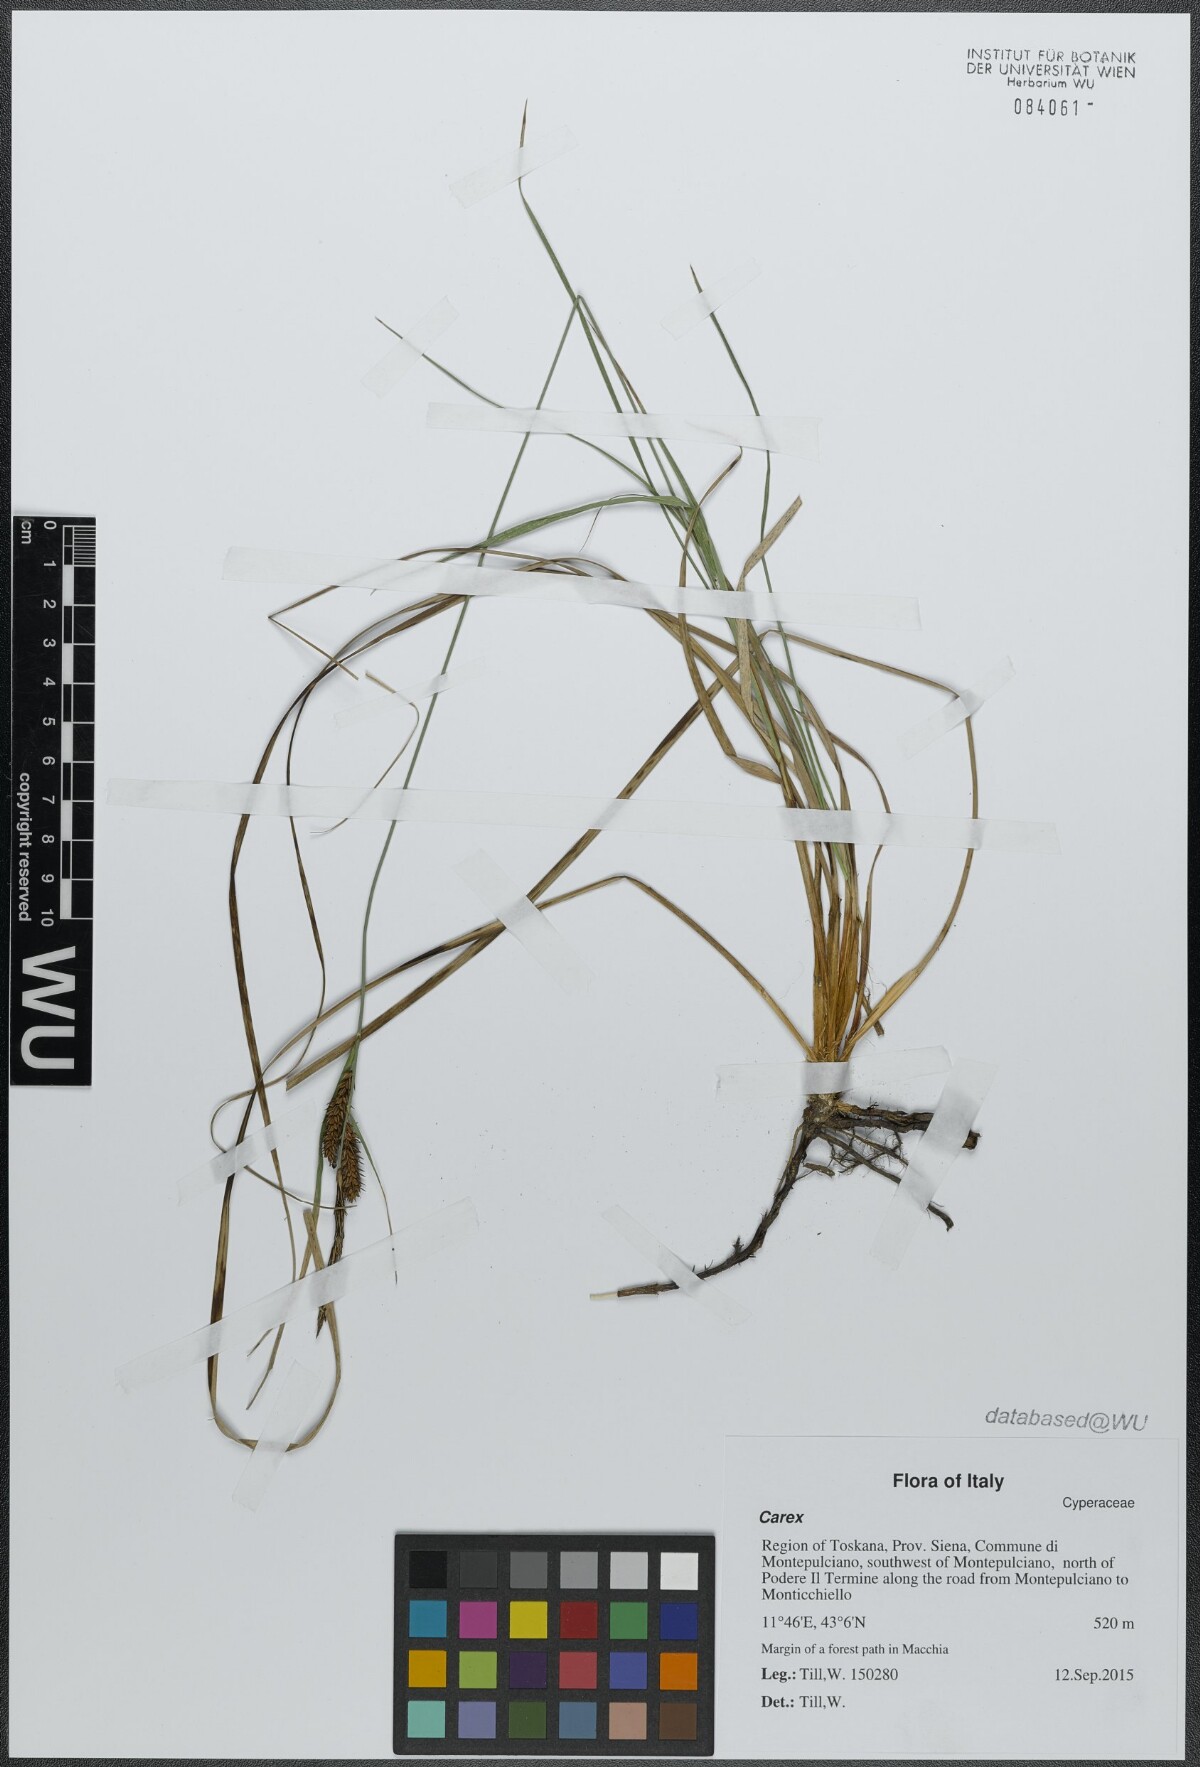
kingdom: Plantae
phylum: Tracheophyta
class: Liliopsida
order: Poales
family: Cyperaceae
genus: Carex
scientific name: Carex
